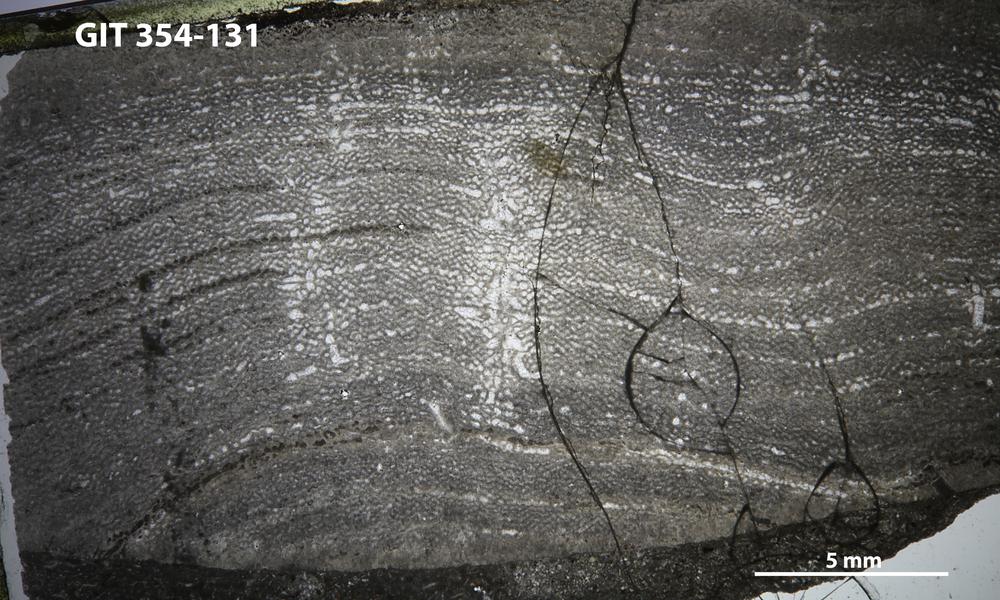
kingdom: Animalia
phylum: Porifera
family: Clathrodictyidae
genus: Clathrodictyon
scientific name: Clathrodictyon boreale
